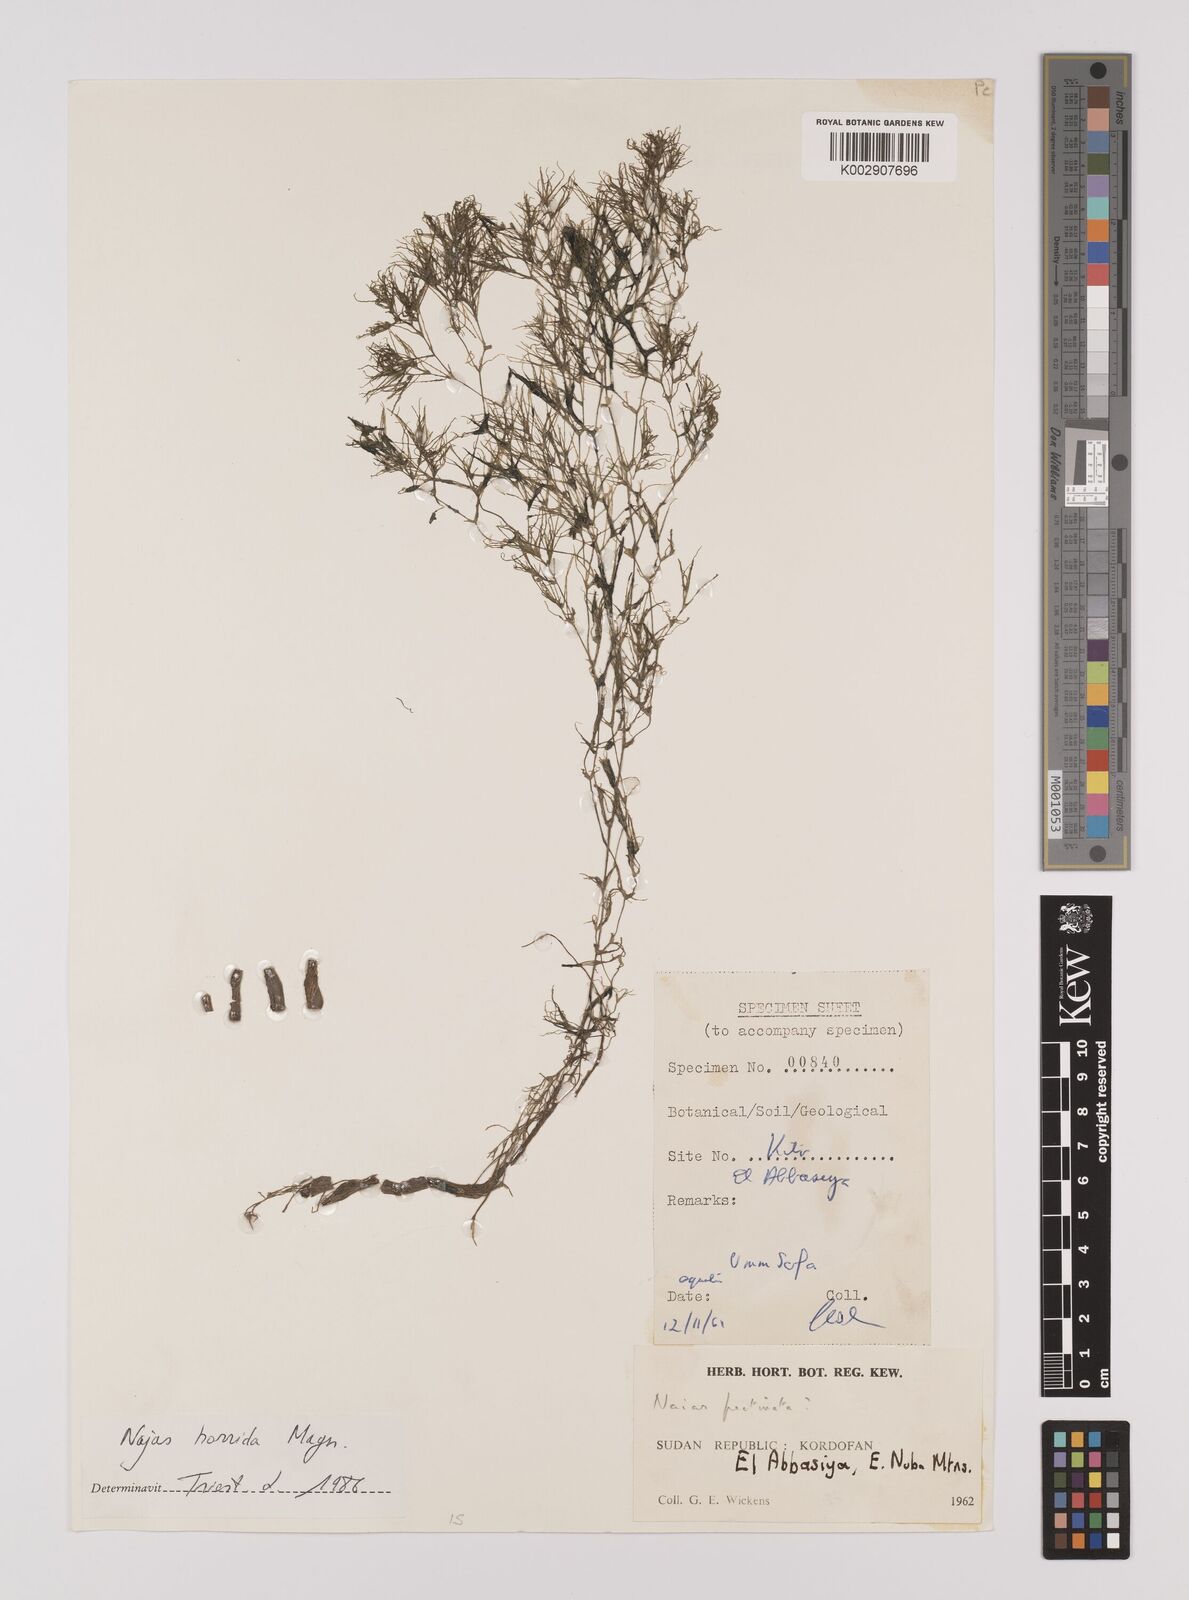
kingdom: Plantae
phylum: Tracheophyta
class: Liliopsida
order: Alismatales
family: Hydrocharitaceae
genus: Najas
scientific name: Najas horrida
